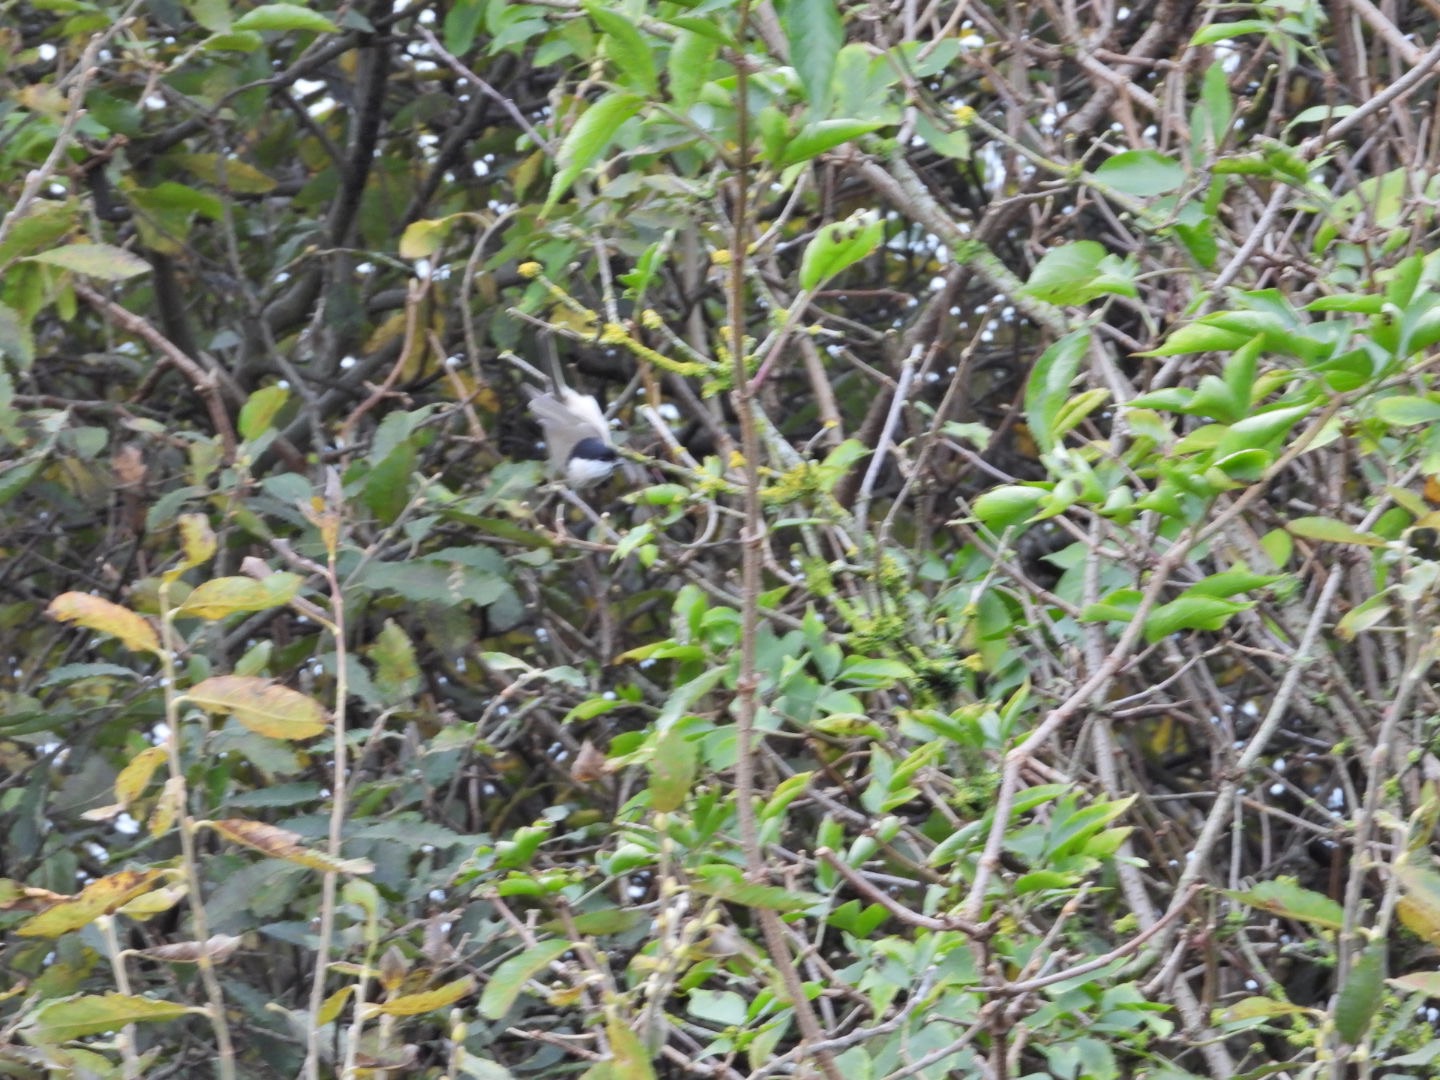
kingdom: Animalia
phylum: Chordata
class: Aves
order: Passeriformes
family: Paridae
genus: Poecile
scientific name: Poecile palustris
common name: Sumpmejse
